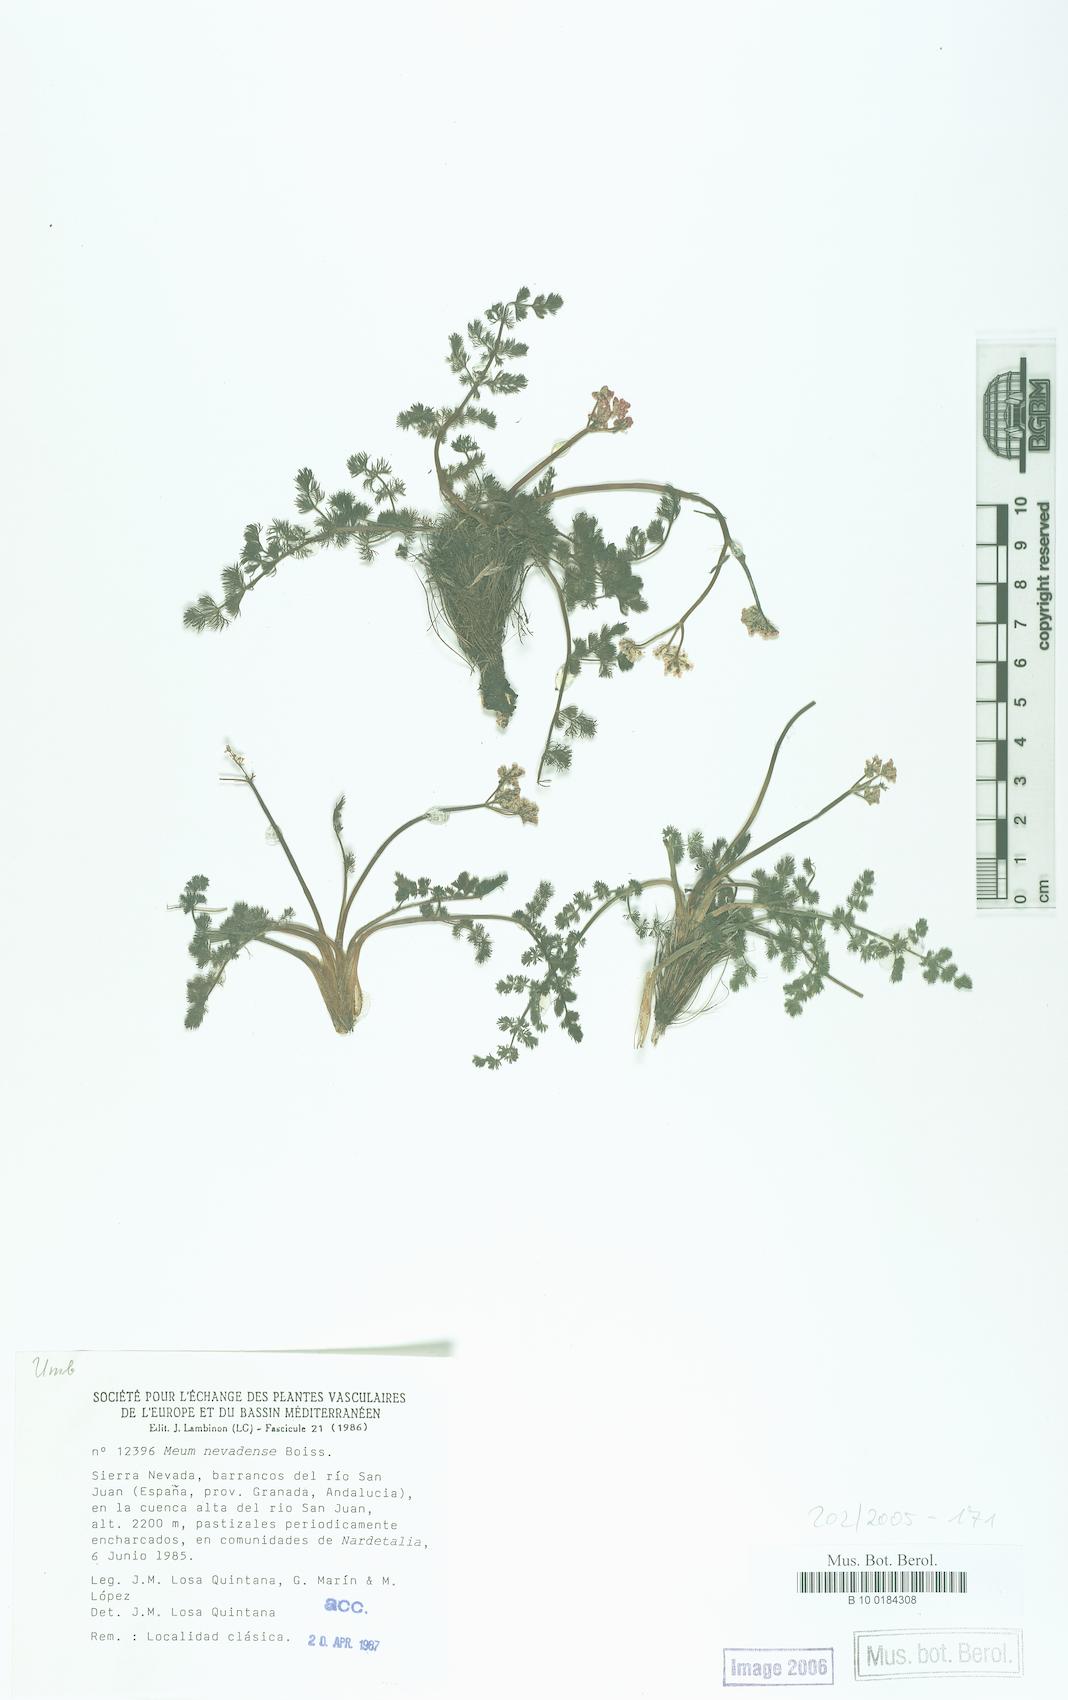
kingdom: Plantae
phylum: Tracheophyta
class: Magnoliopsida
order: Apiales
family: Apiaceae
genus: Meum
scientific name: Meum athamanticum
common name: Spignel
